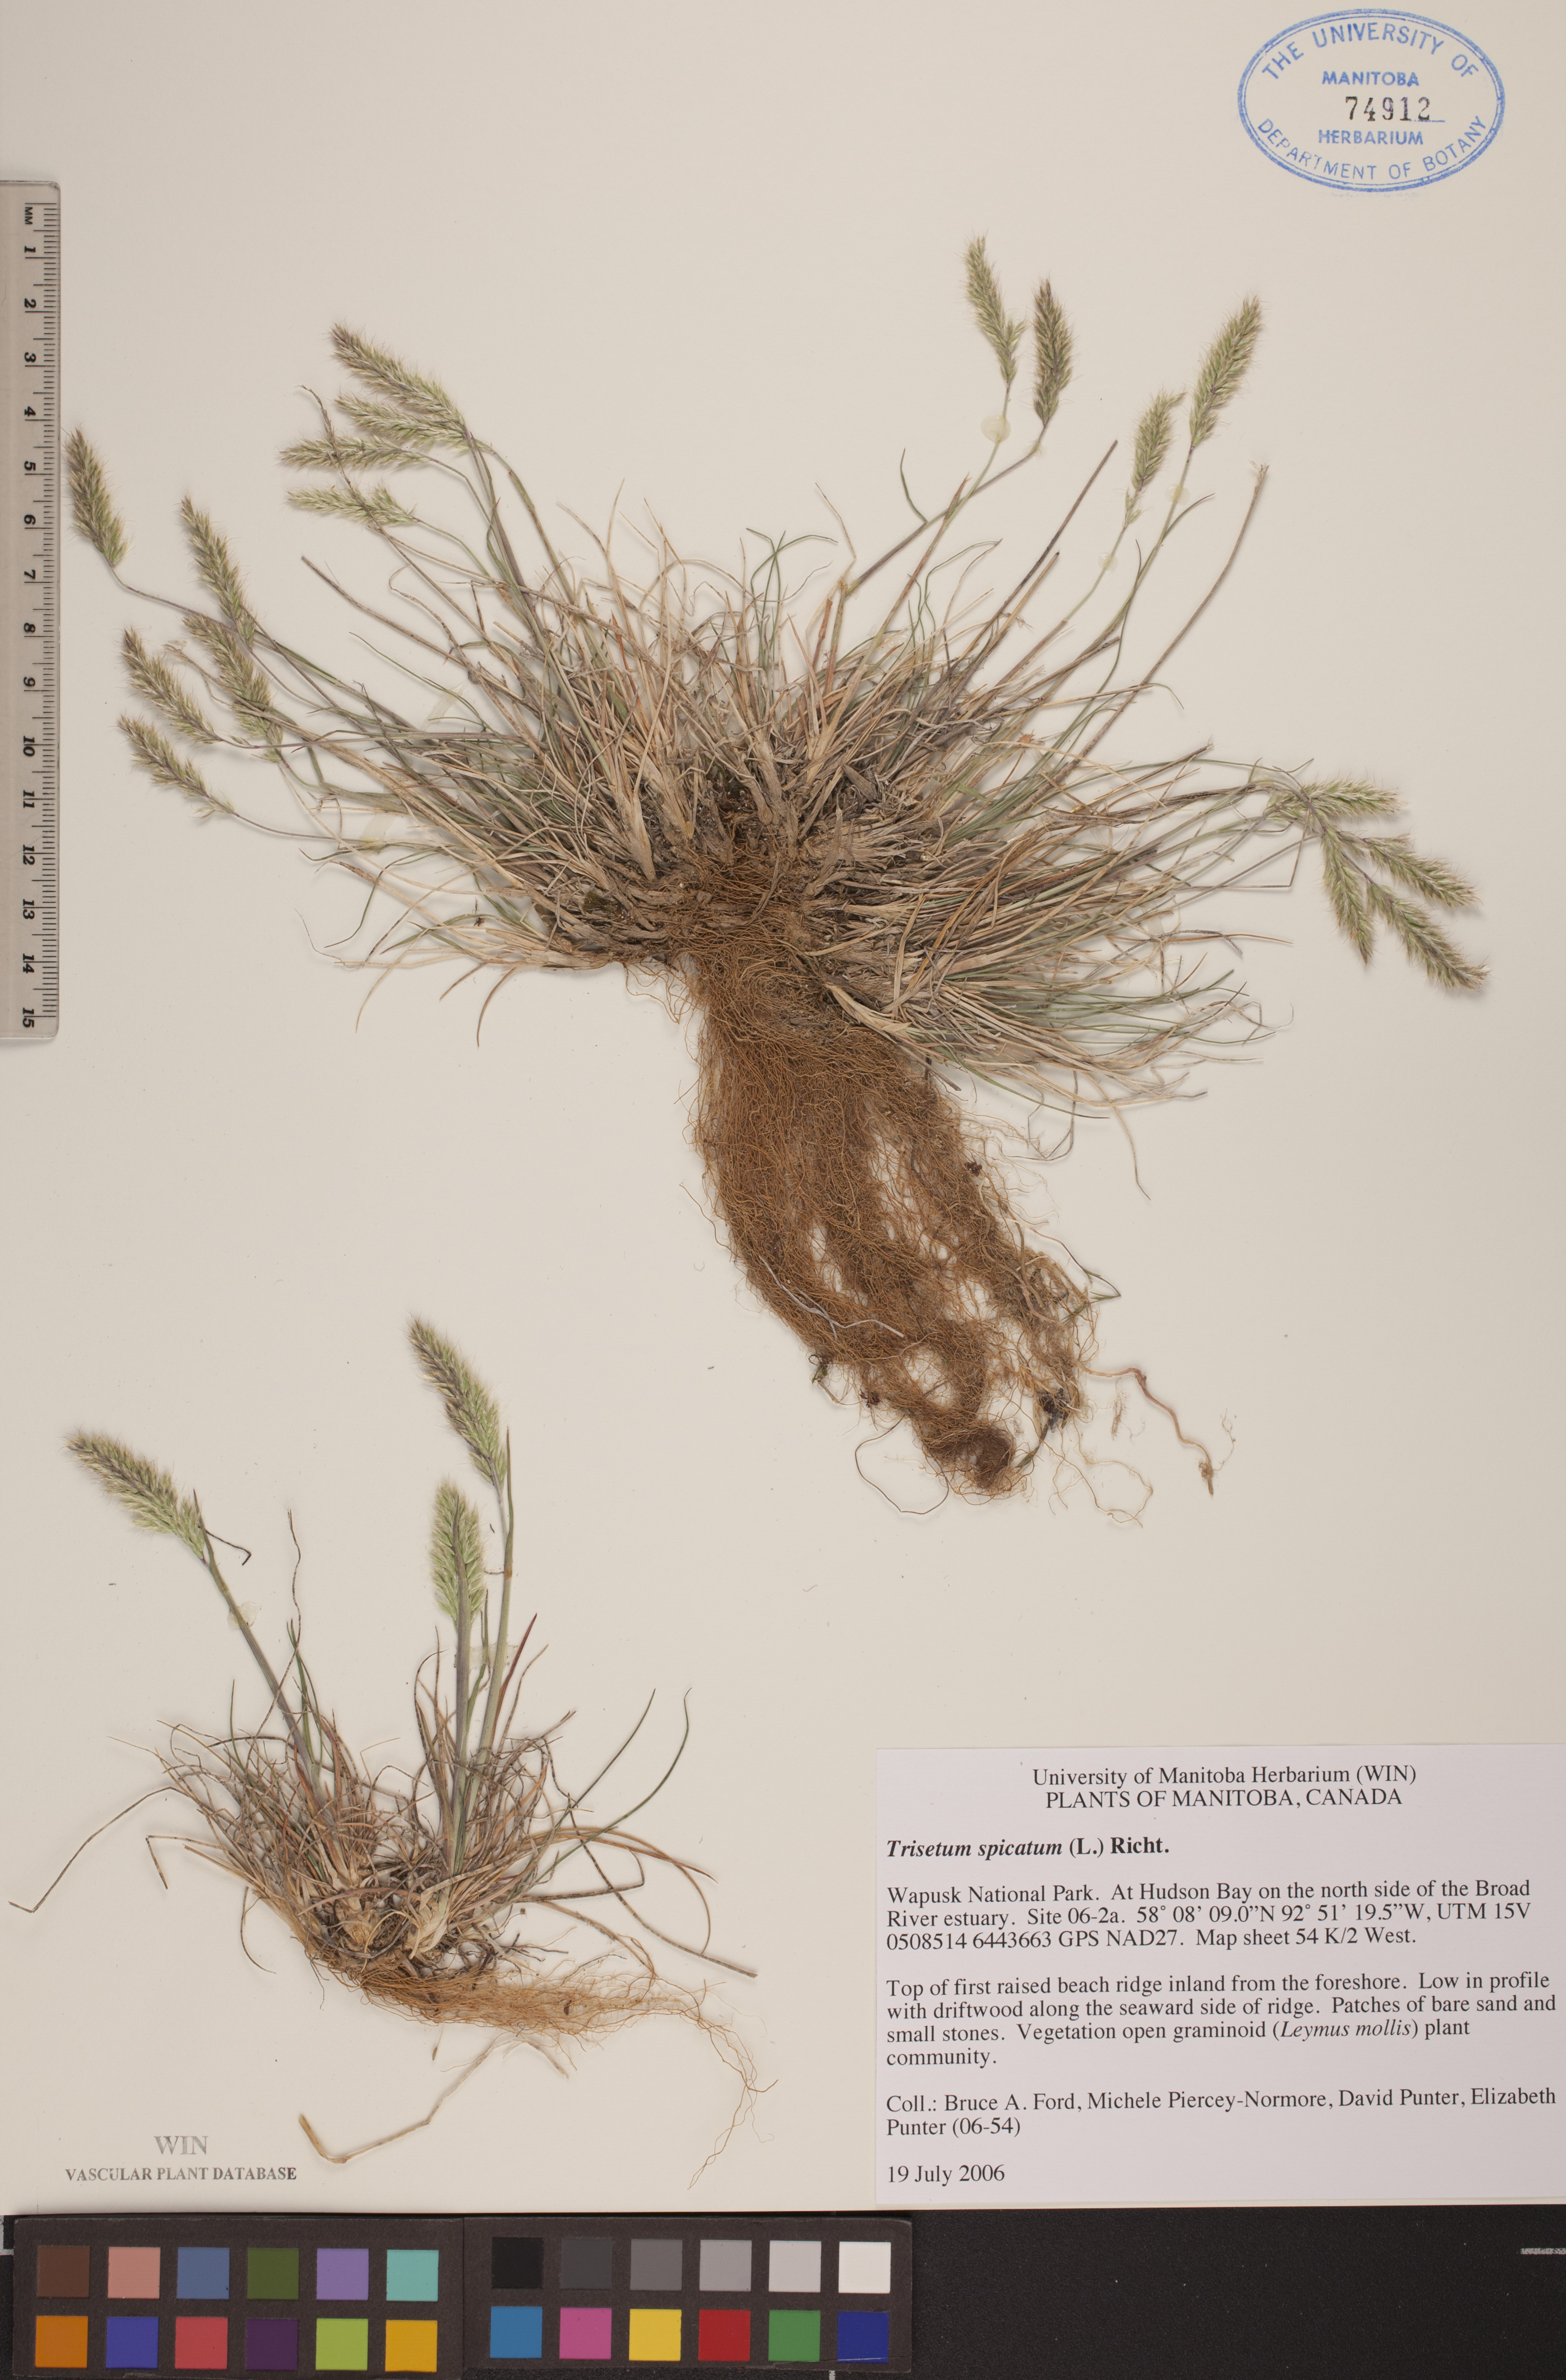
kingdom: Plantae
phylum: Tracheophyta
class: Liliopsida
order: Poales
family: Poaceae
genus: Koeleria
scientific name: Koeleria spicata
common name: Mountain trisetum
